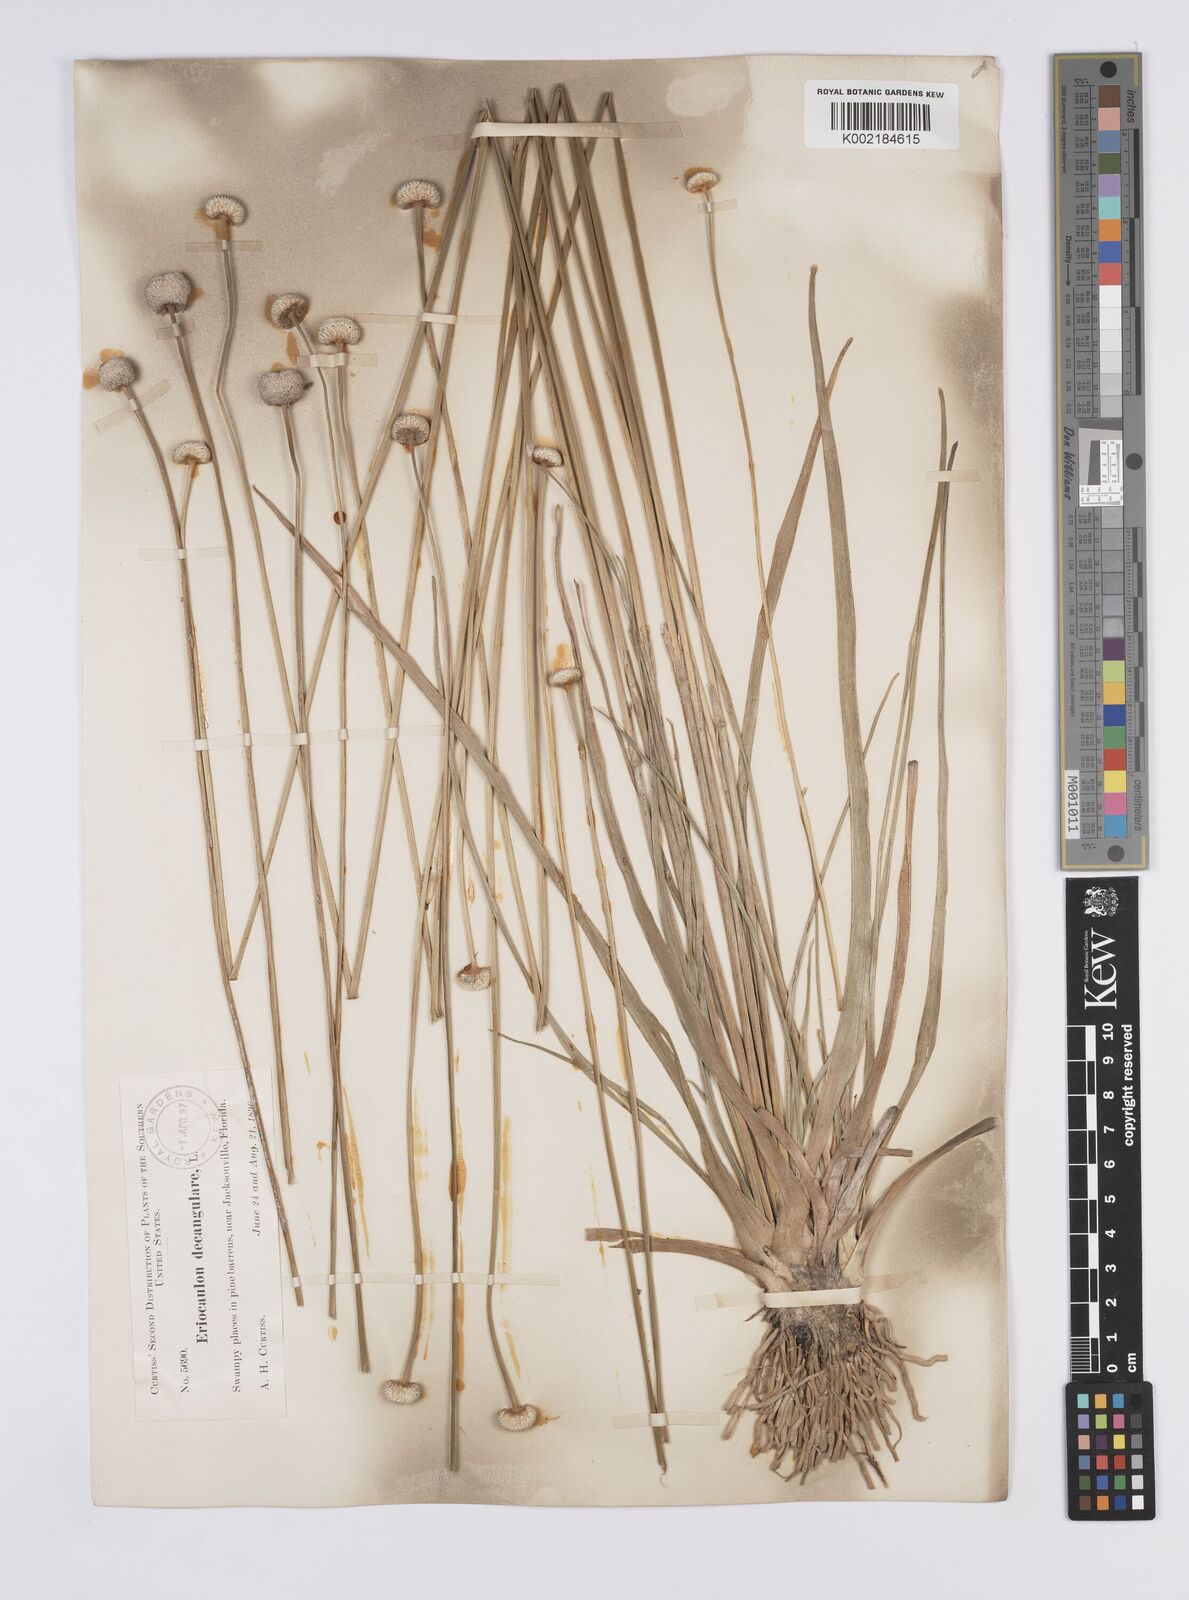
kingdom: Plantae
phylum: Tracheophyta
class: Liliopsida
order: Poales
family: Eriocaulaceae
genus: Eriocaulon
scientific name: Eriocaulon decangulare
